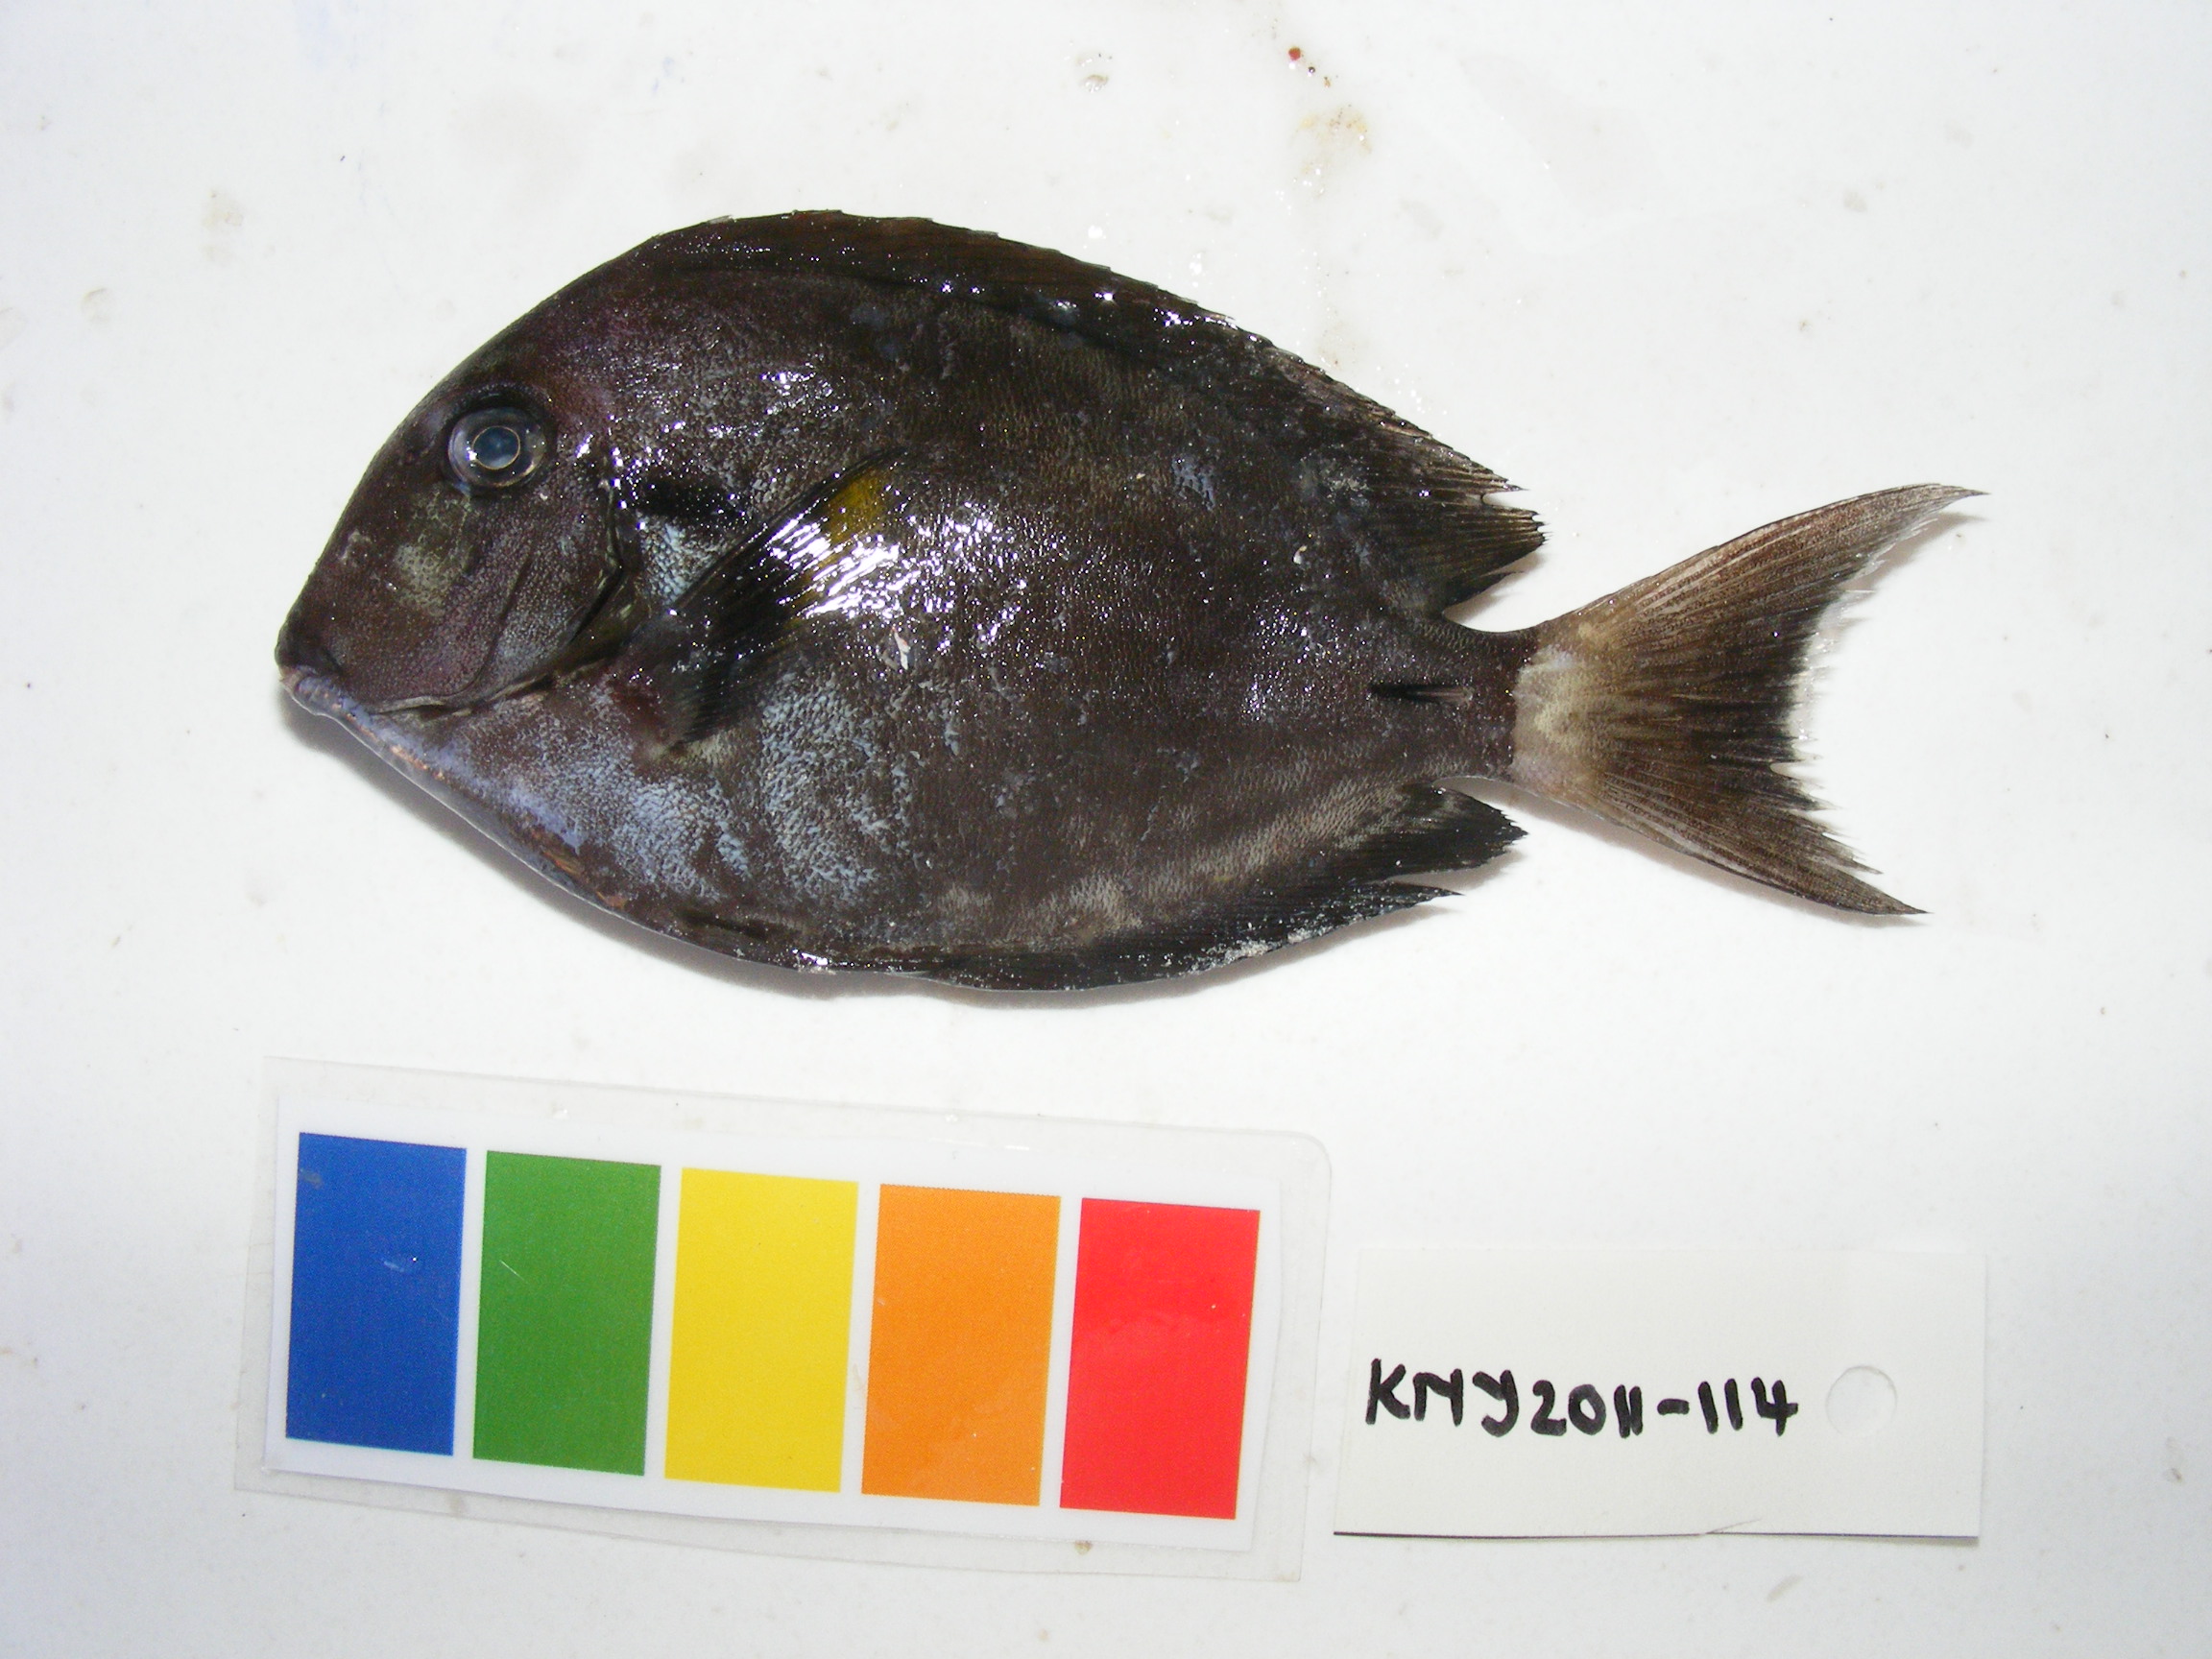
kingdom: Animalia
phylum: Chordata
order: Perciformes
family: Acanthuridae
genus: Acanthurus
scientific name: Acanthurus nigricauda
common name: Black-barred surgeonfish
